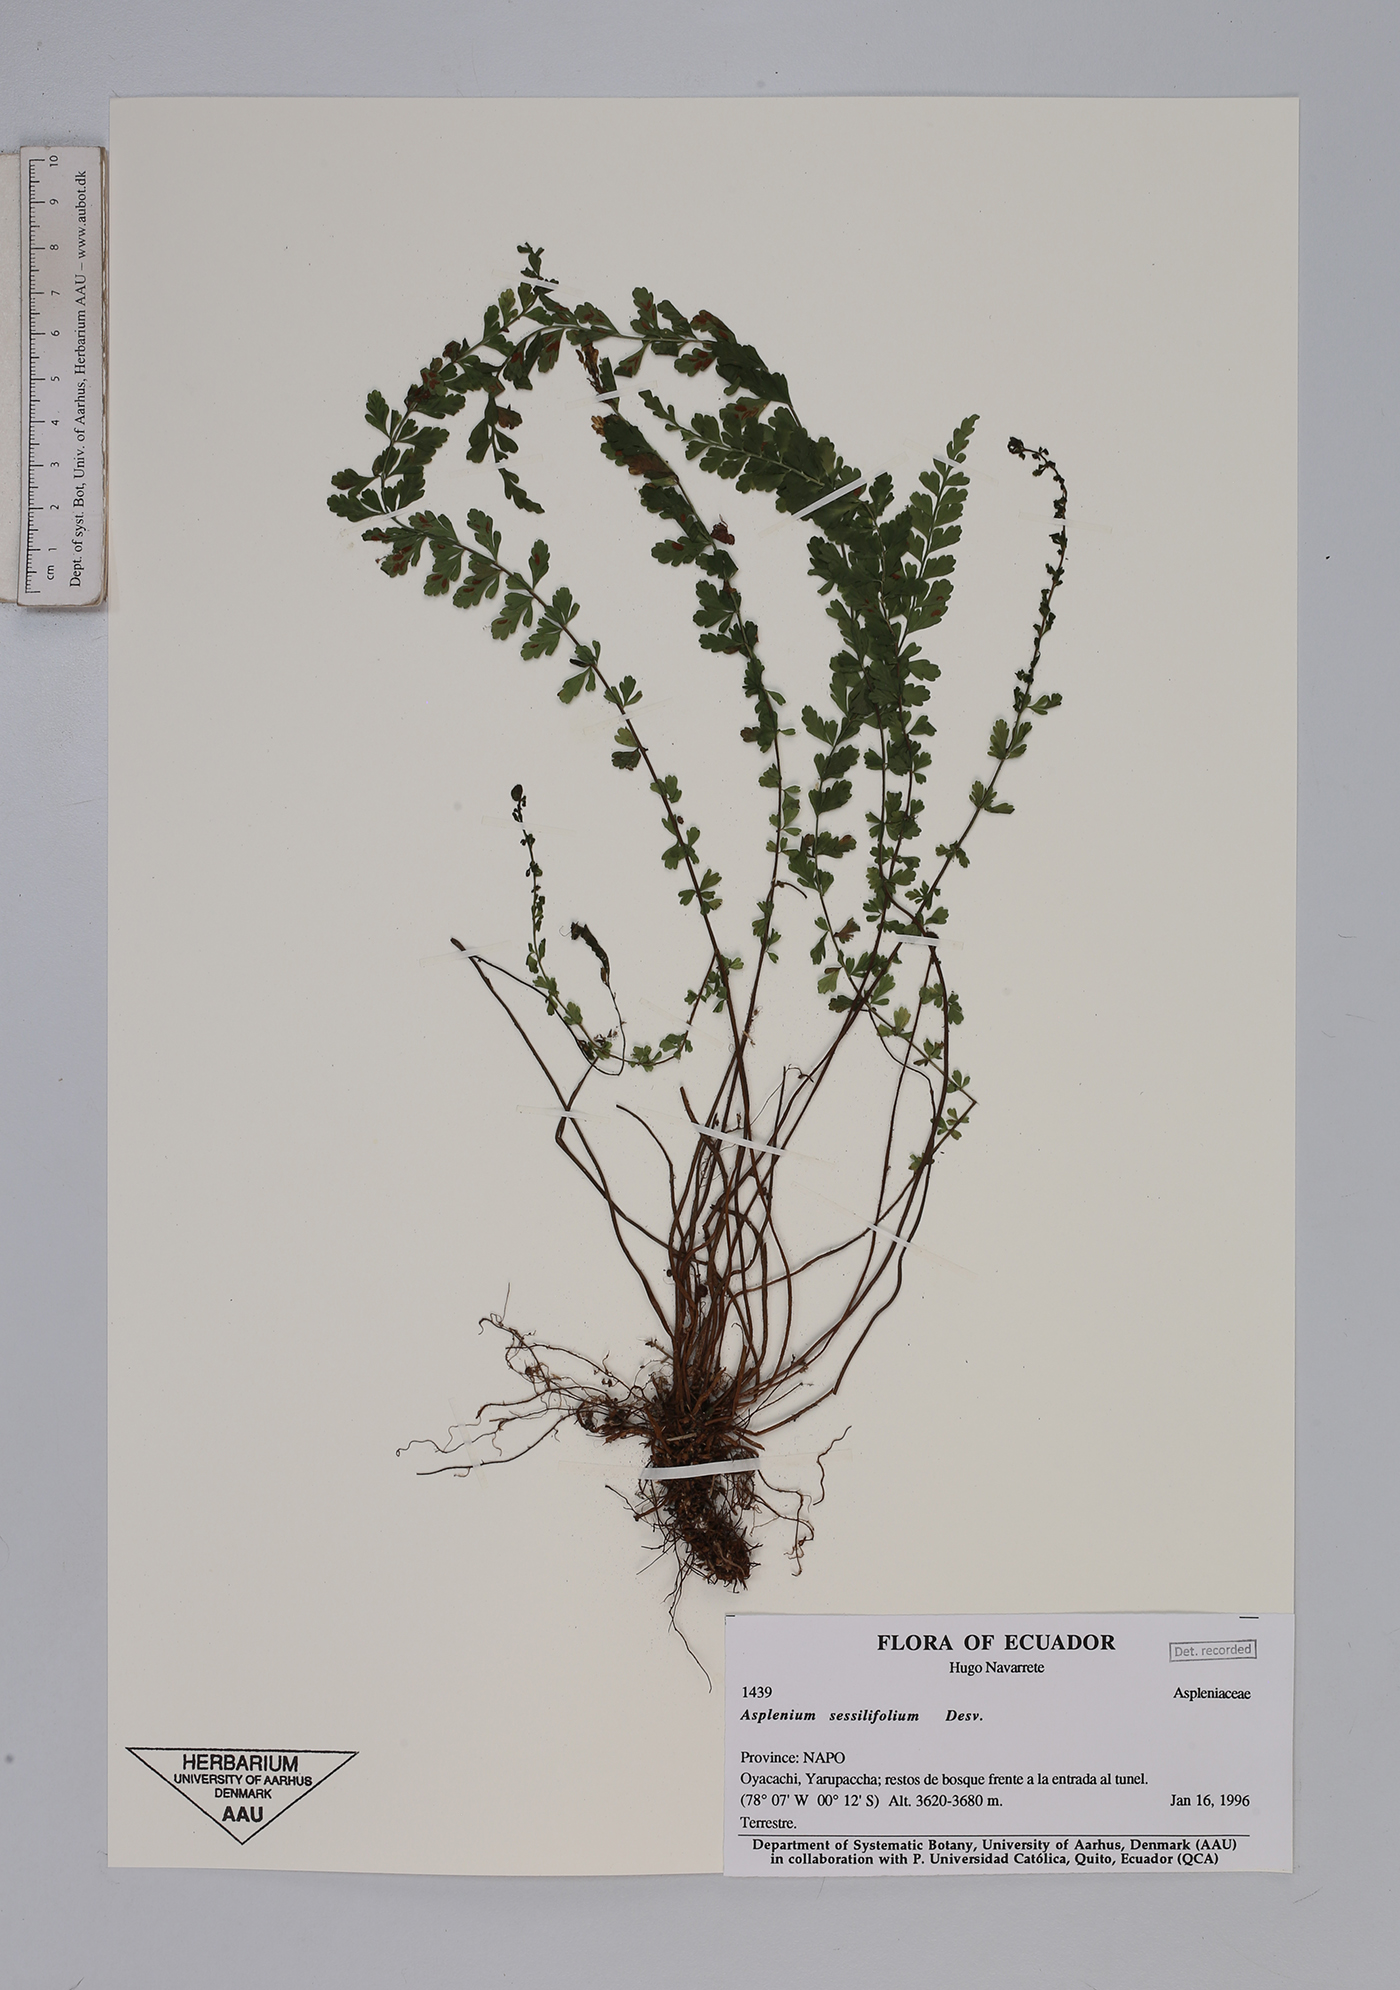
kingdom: Plantae
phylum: Tracheophyta
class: Polypodiopsida
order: Polypodiales
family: Aspleniaceae
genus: Asplenium
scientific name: Asplenium
